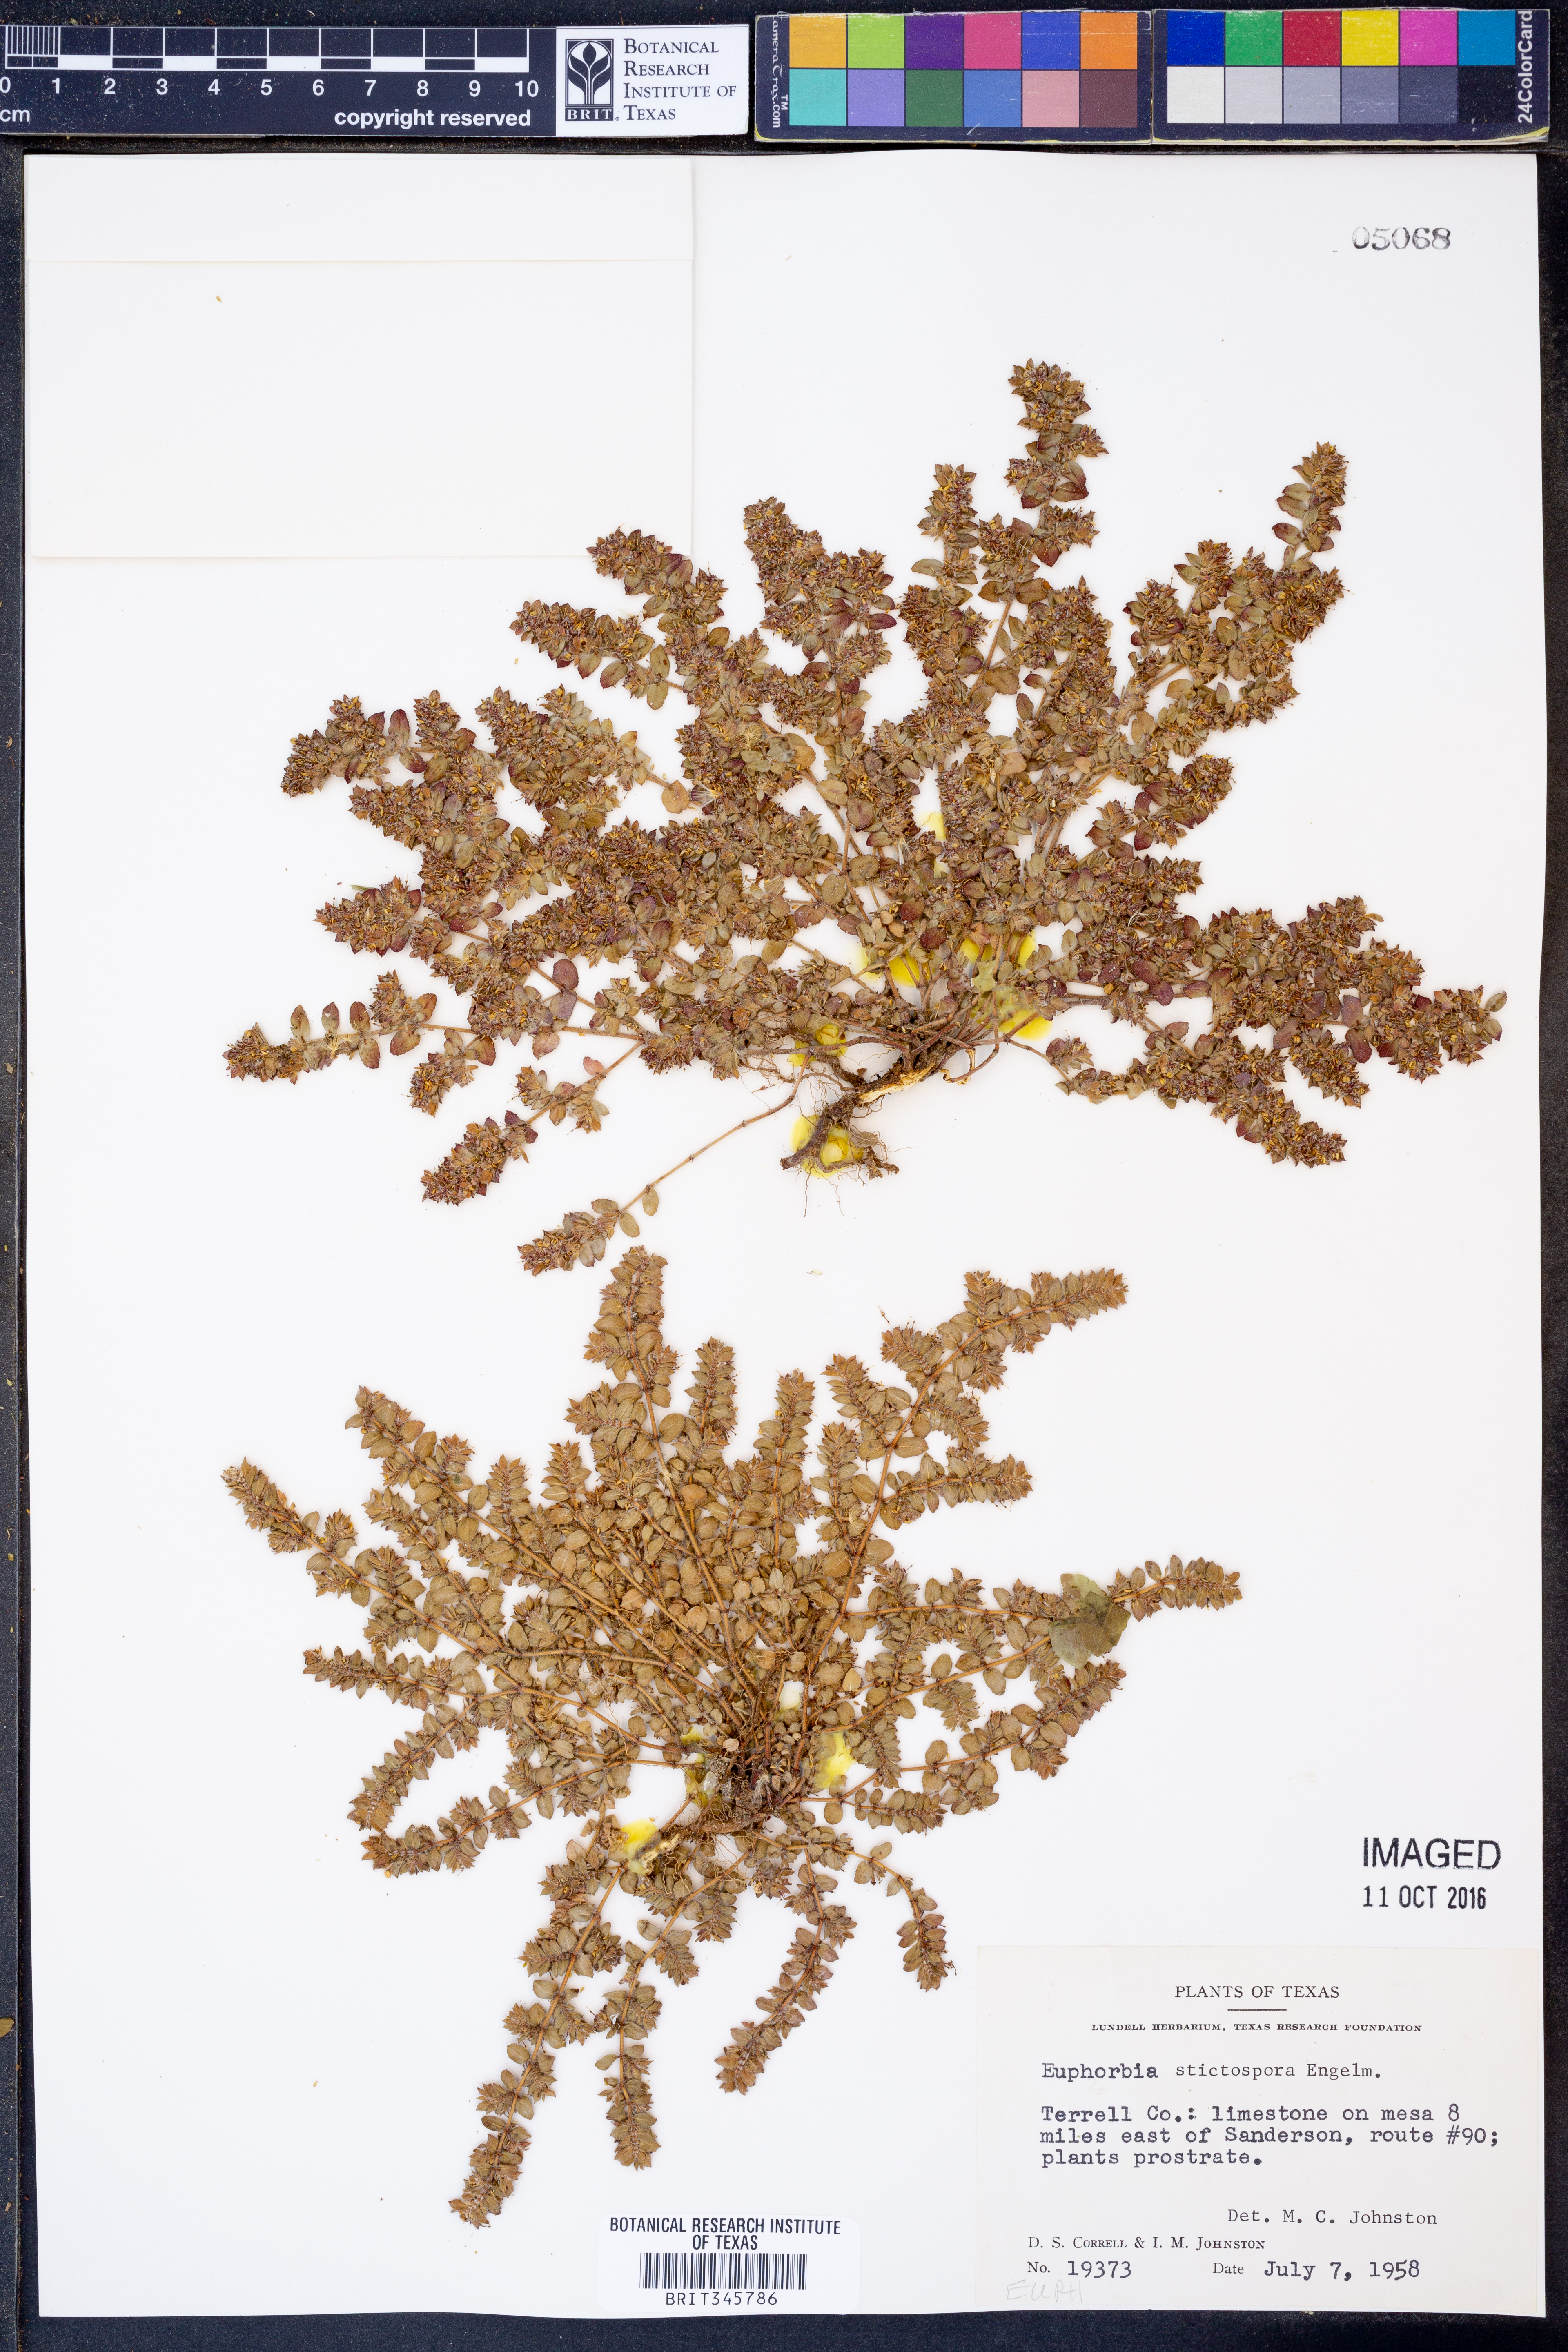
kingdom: Plantae
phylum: Tracheophyta
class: Magnoliopsida
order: Malpighiales
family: Euphorbiaceae
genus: Euphorbia
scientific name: Euphorbia stictospora
